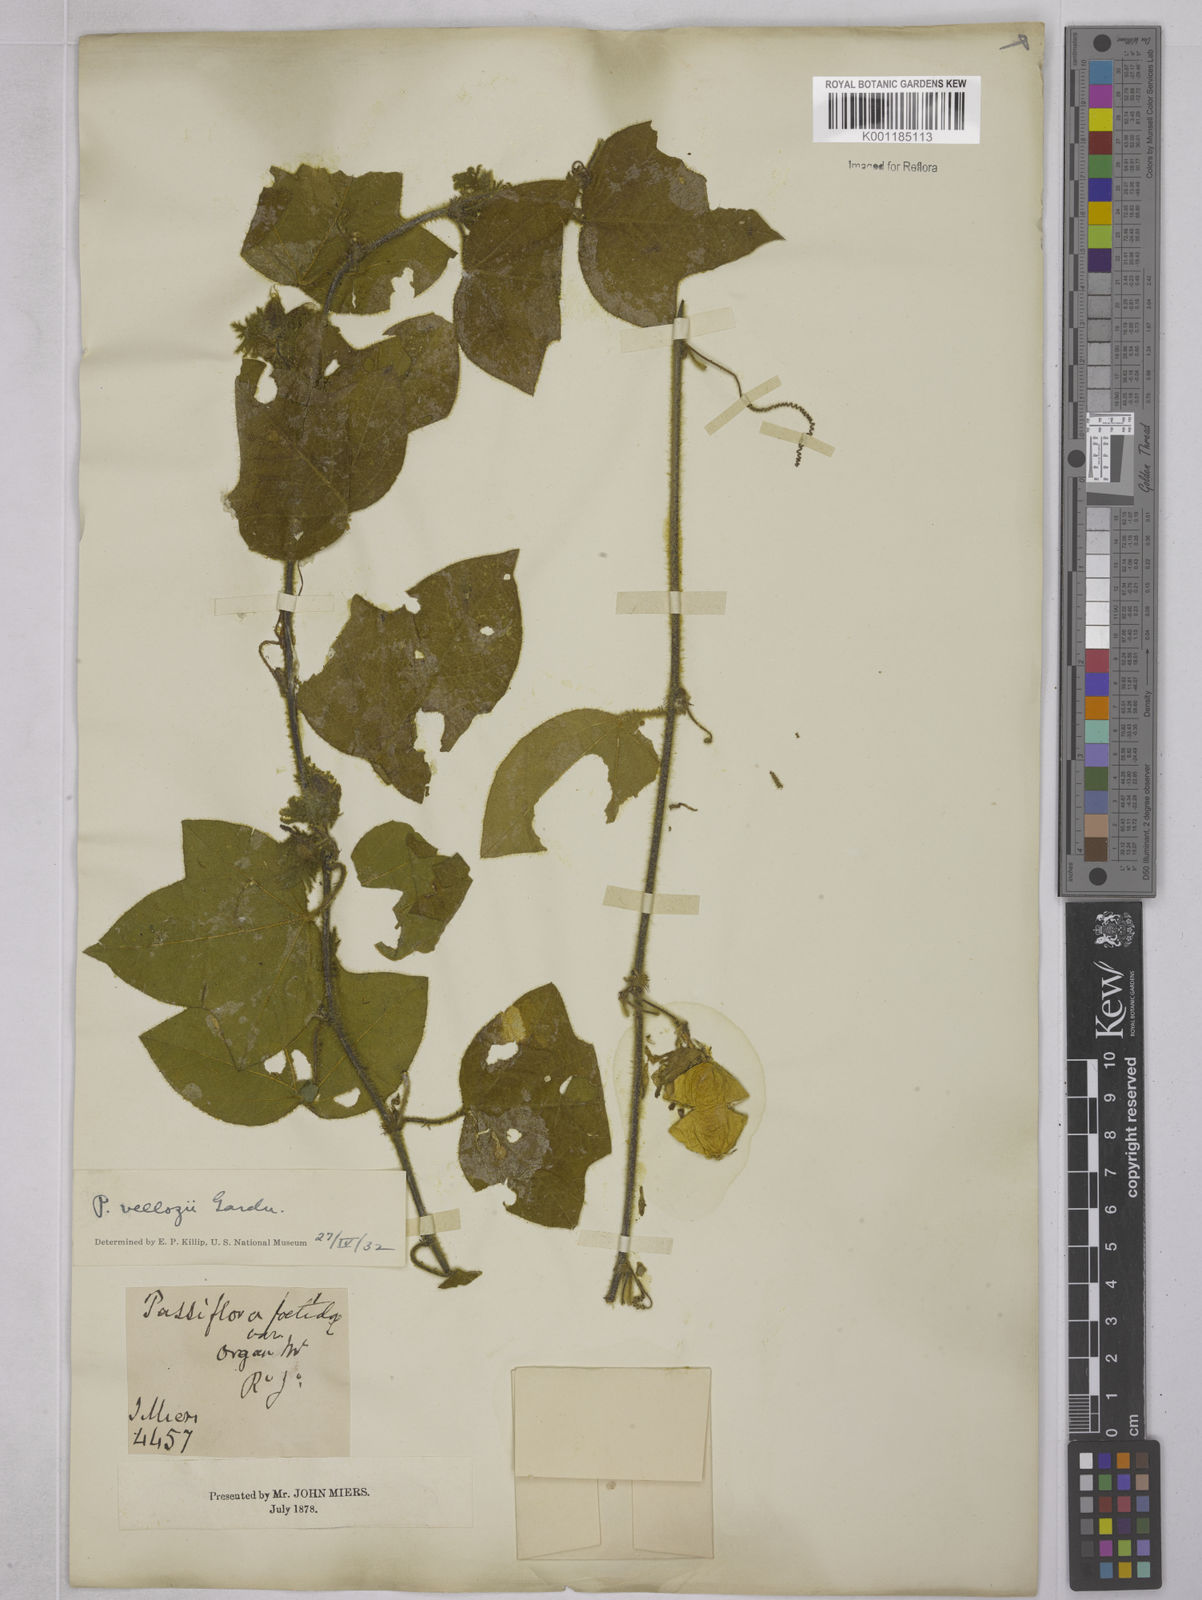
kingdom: Plantae
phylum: Tracheophyta
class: Magnoliopsida
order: Malpighiales
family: Passifloraceae
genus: Passiflora
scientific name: Passiflora
